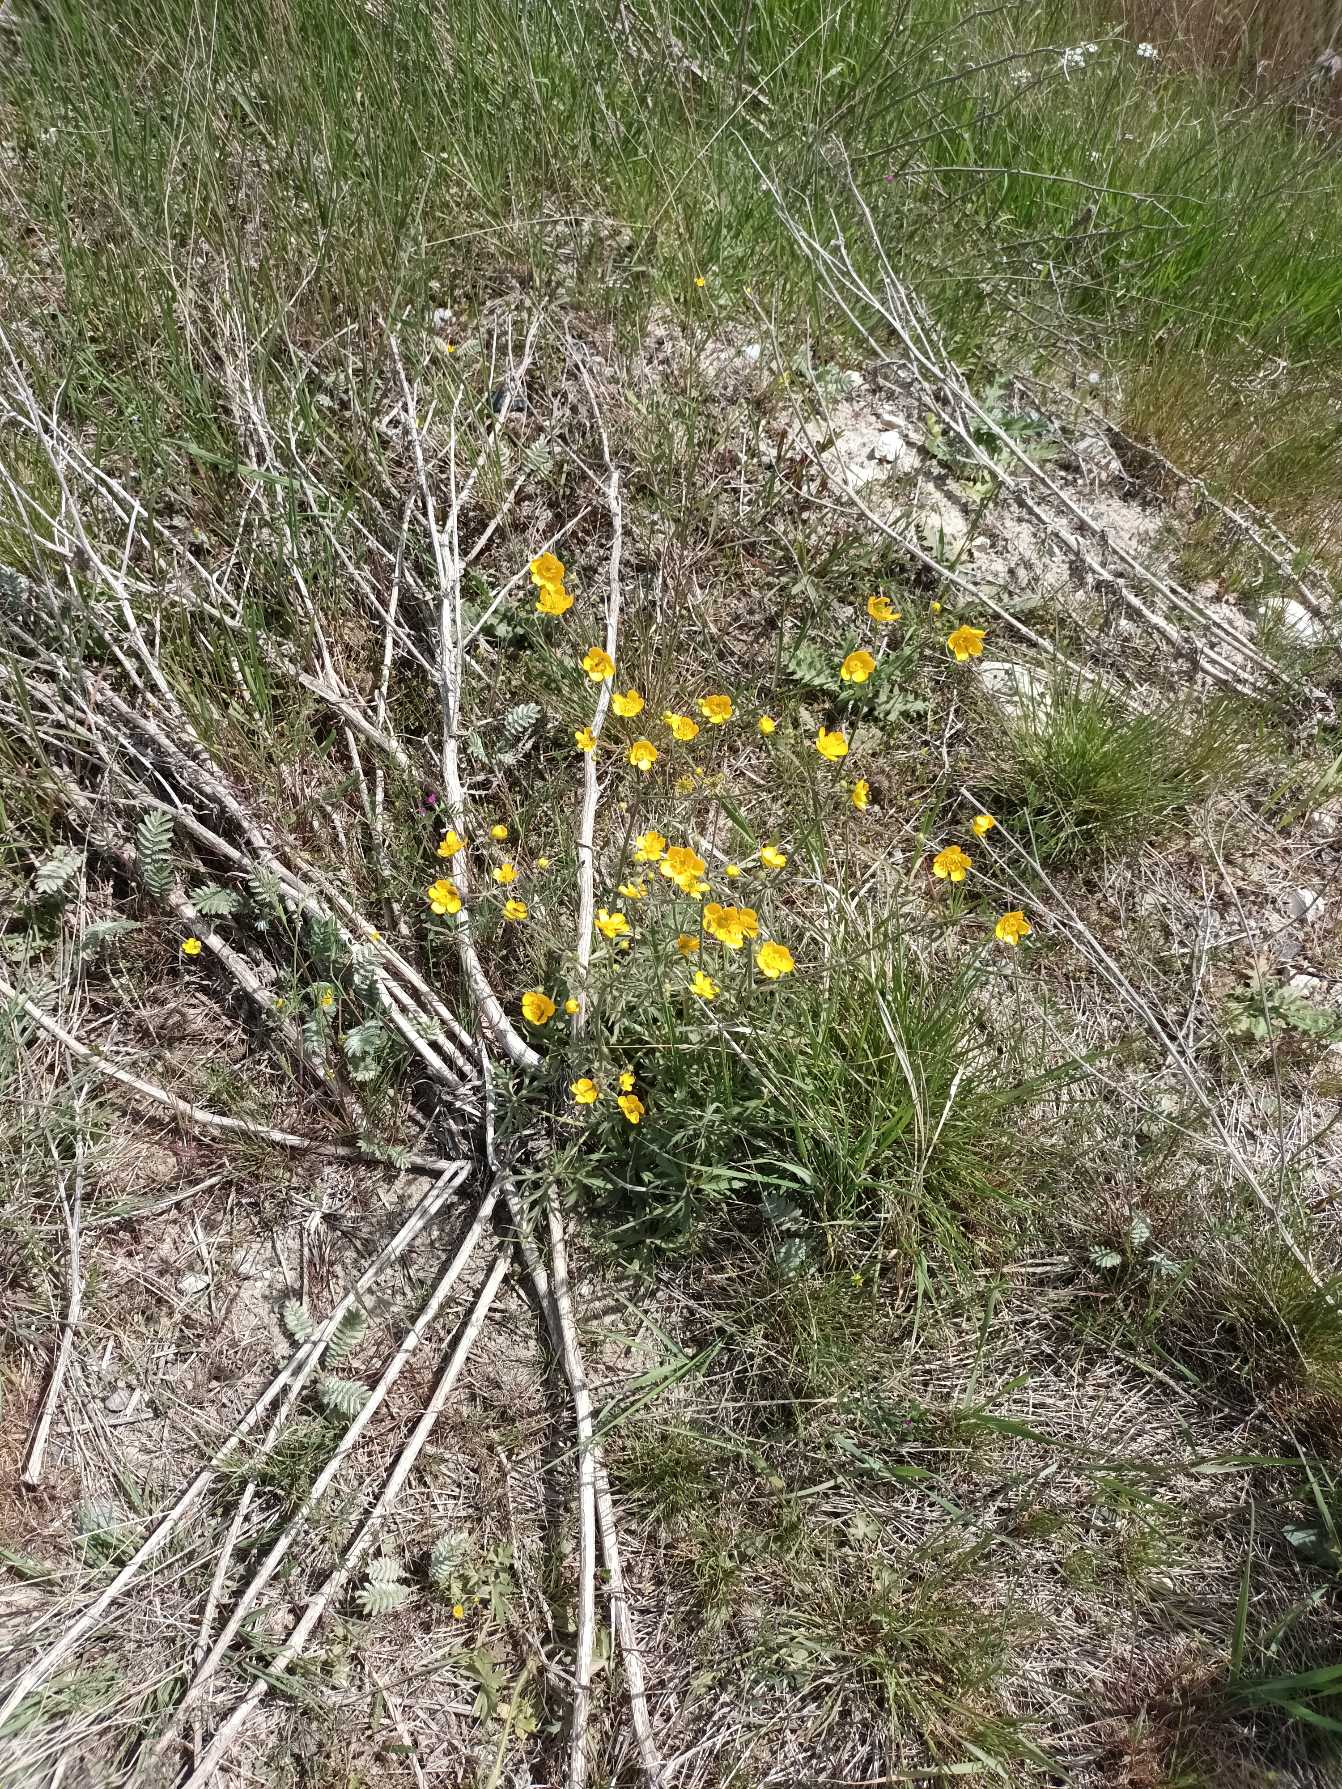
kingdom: Plantae
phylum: Tracheophyta
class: Magnoliopsida
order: Ranunculales
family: Ranunculaceae
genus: Ranunculus
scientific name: Ranunculus acris
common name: Bidende ranunkel
